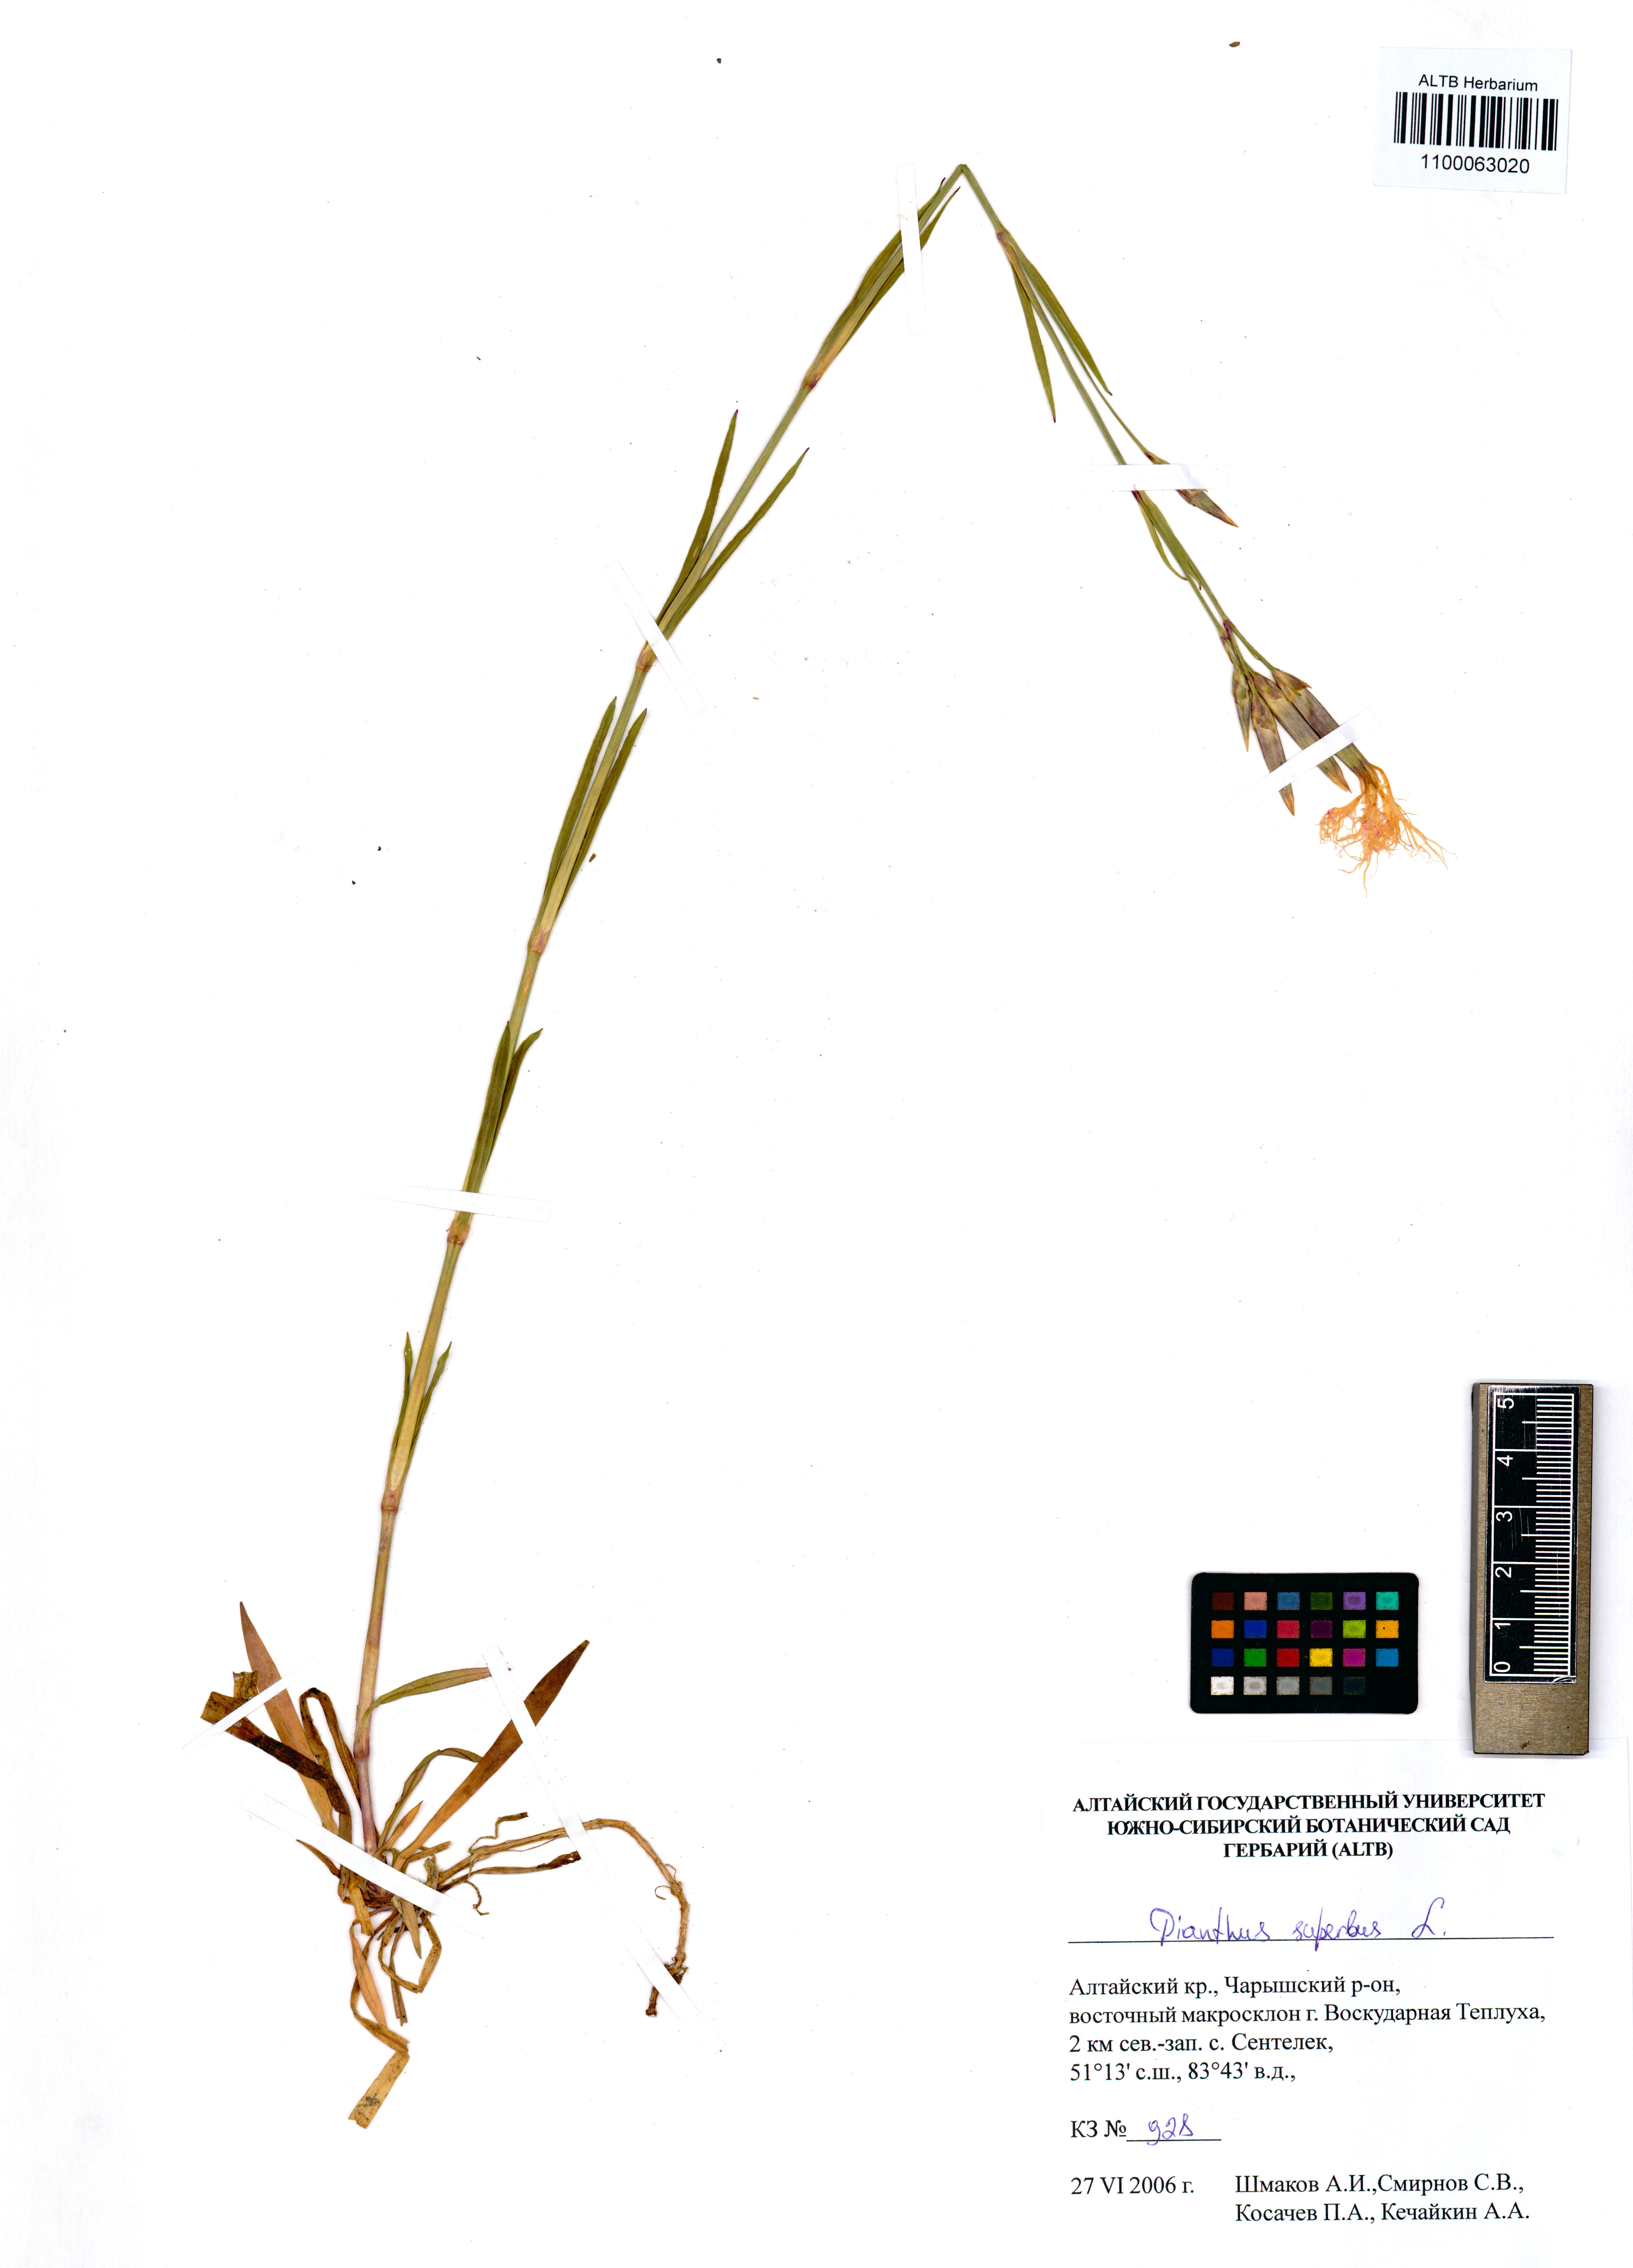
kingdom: Plantae
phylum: Tracheophyta
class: Magnoliopsida
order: Caryophyllales
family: Caryophyllaceae
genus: Dianthus
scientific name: Dianthus superbus
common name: Fringed pink
